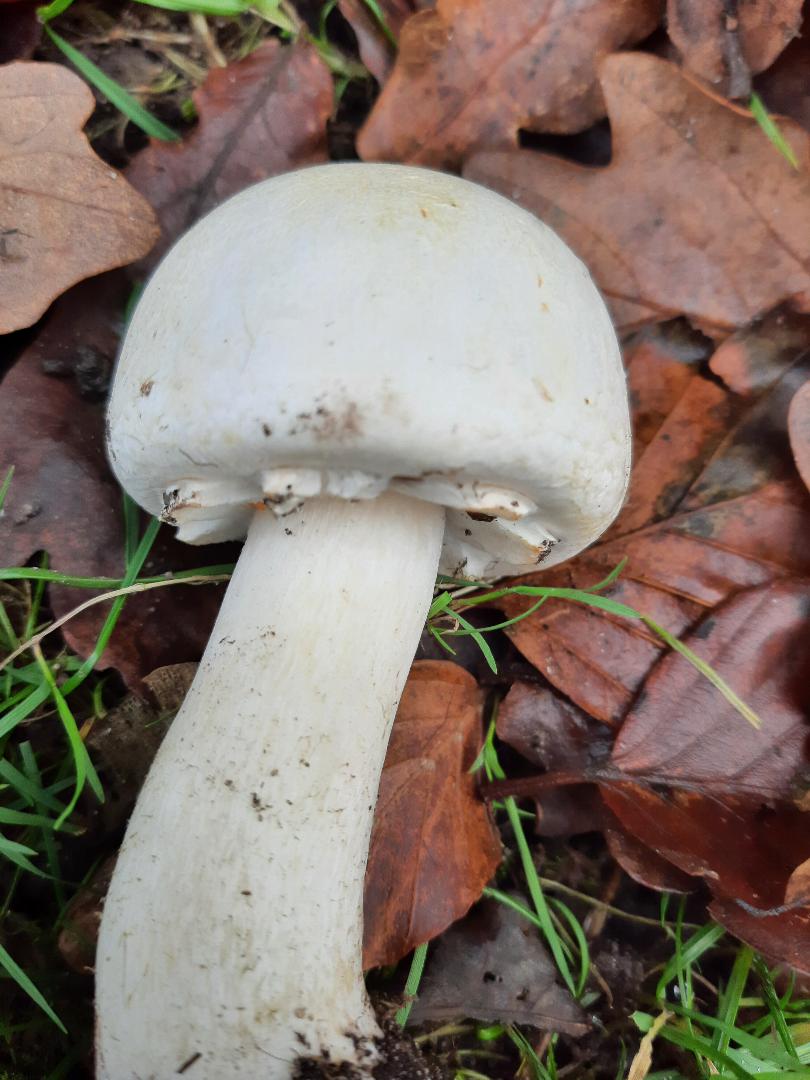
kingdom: Fungi
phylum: Basidiomycota
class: Agaricomycetes
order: Agaricales
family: Agaricaceae
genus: Agaricus
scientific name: Agaricus arvensis
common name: ager-champignon
